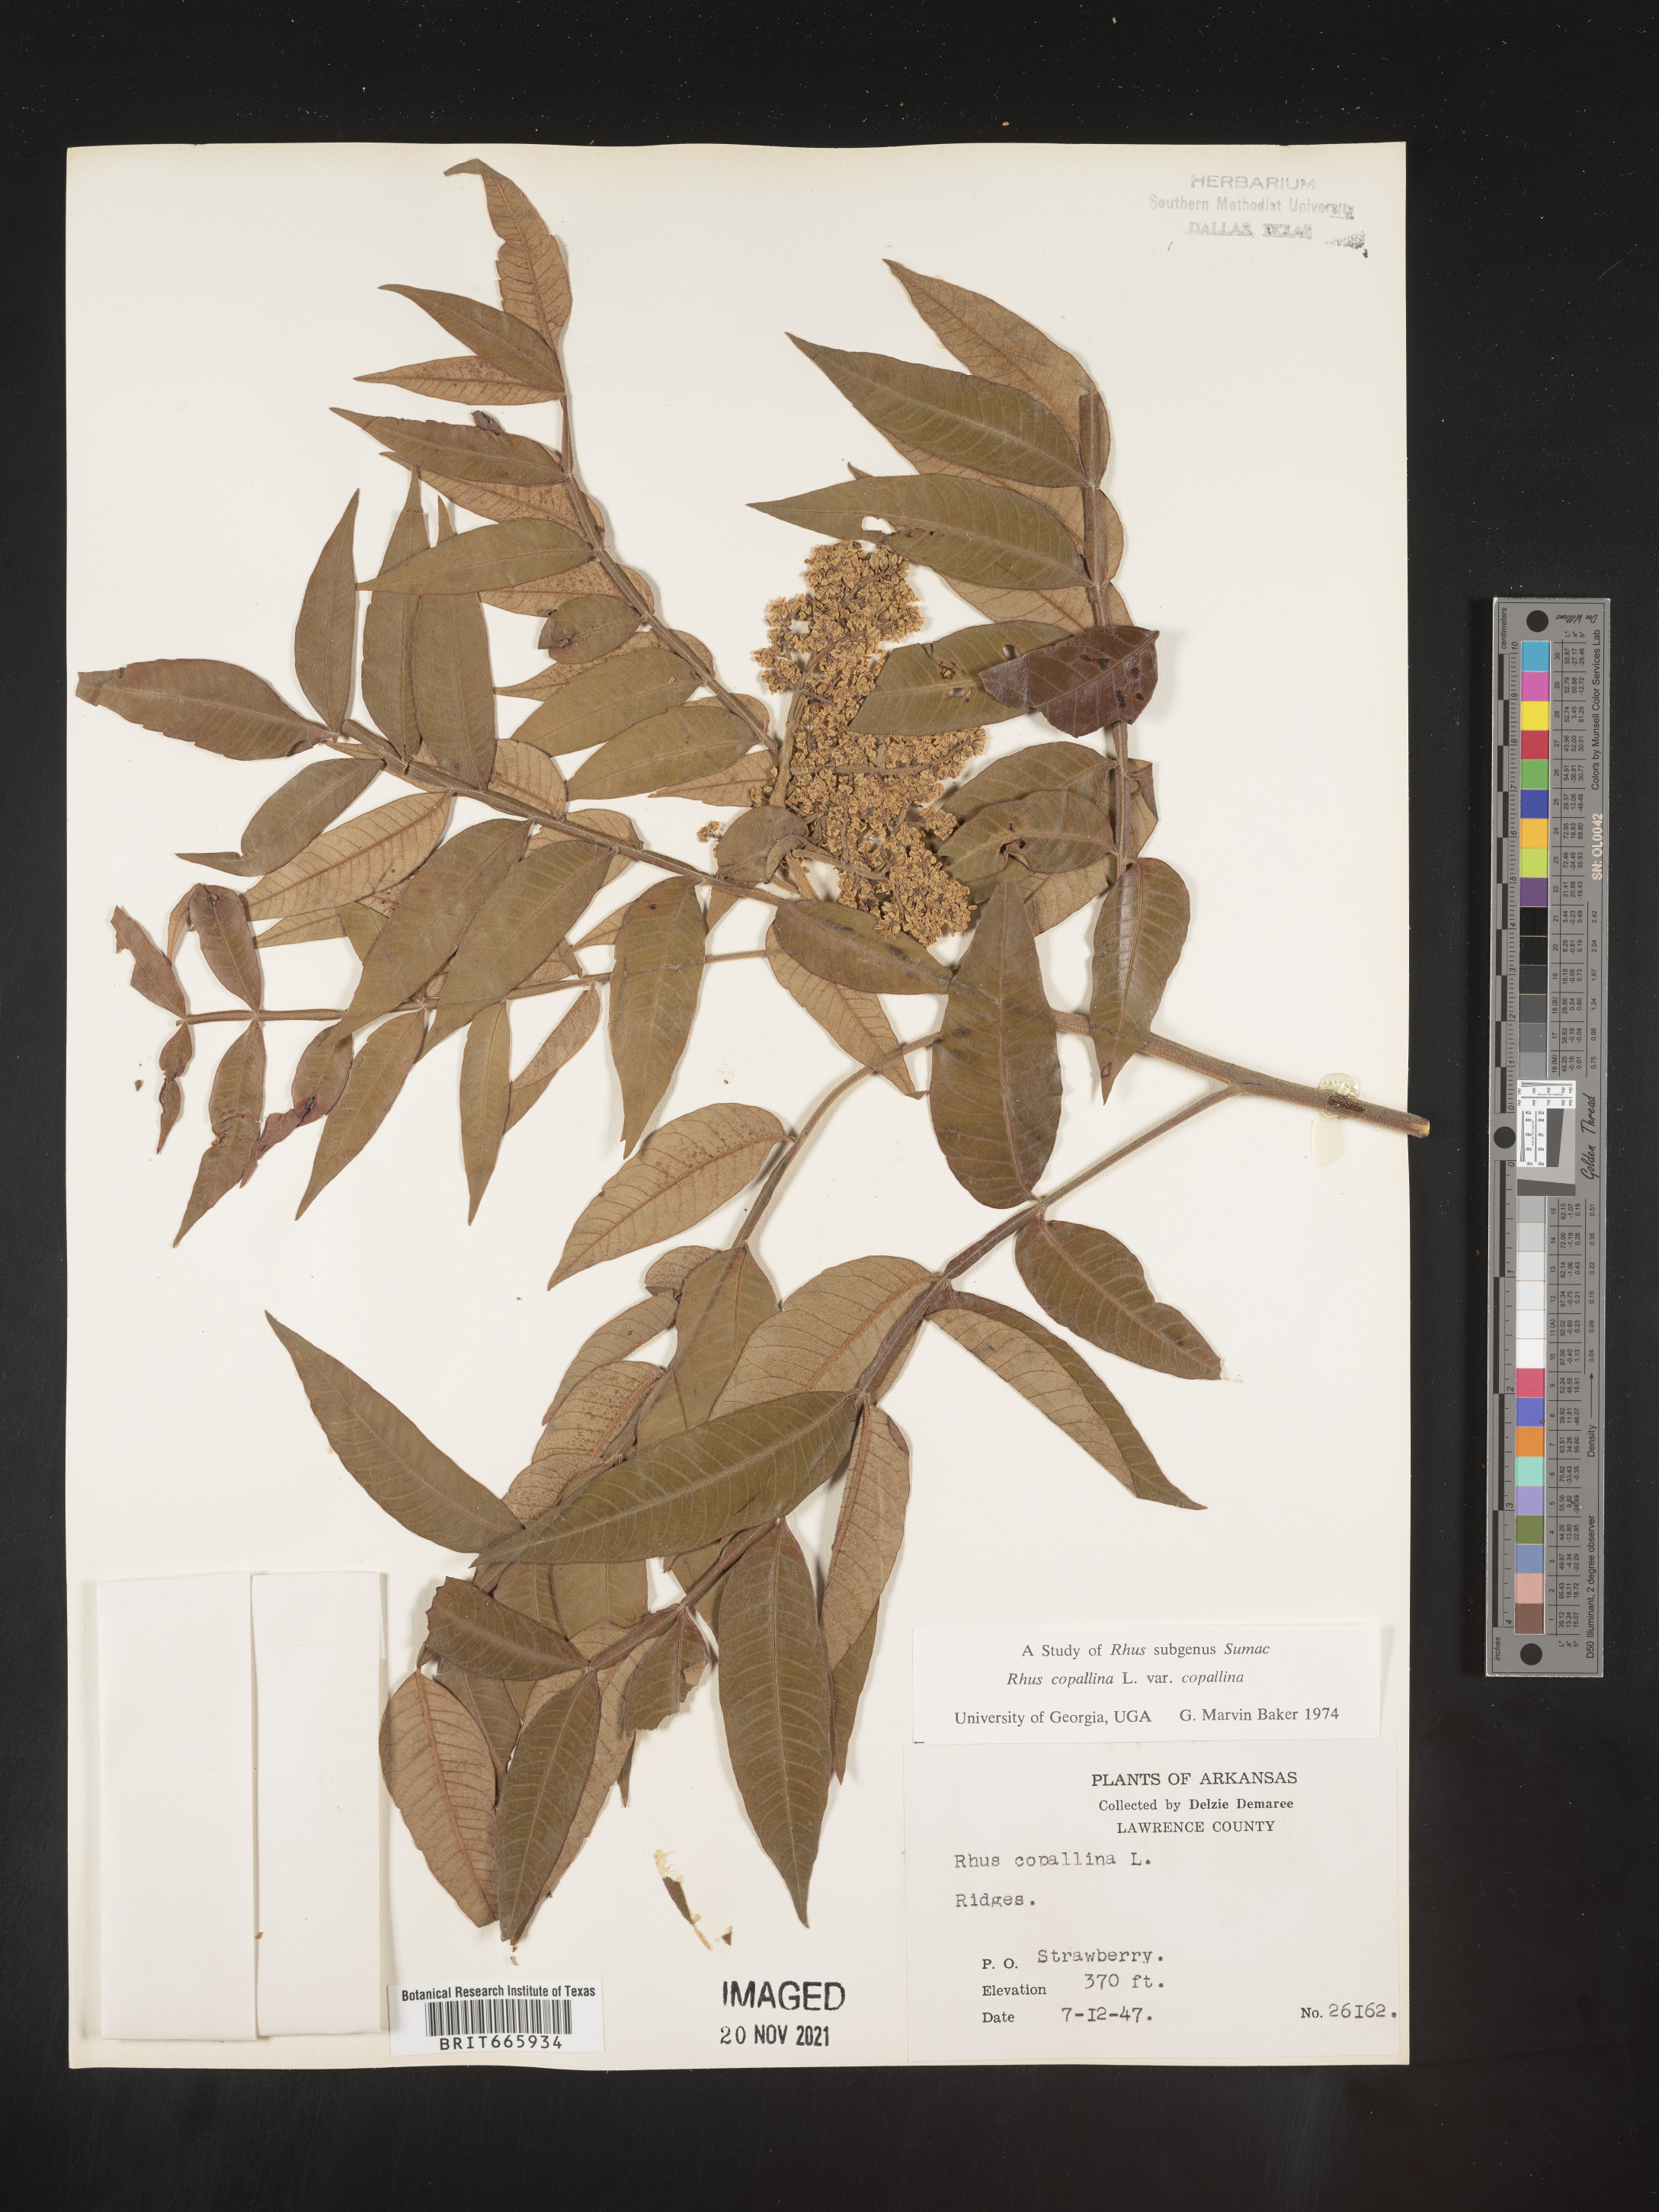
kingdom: Plantae
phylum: Tracheophyta
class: Magnoliopsida
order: Sapindales
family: Anacardiaceae
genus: Rhus
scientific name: Rhus copallina
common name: Shining sumac
